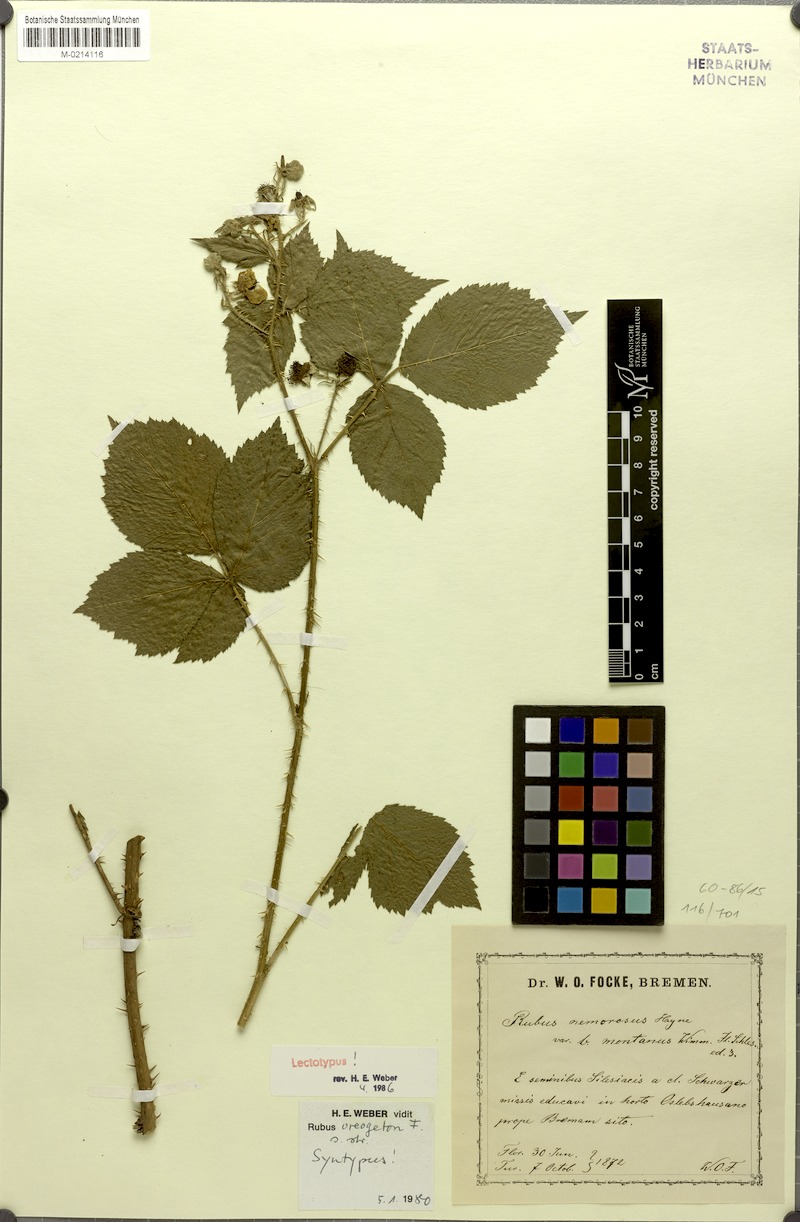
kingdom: Plantae
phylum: Tracheophyta
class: Magnoliopsida
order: Rosales
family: Rosaceae
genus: Rubus
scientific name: Rubus fabrimontanus
